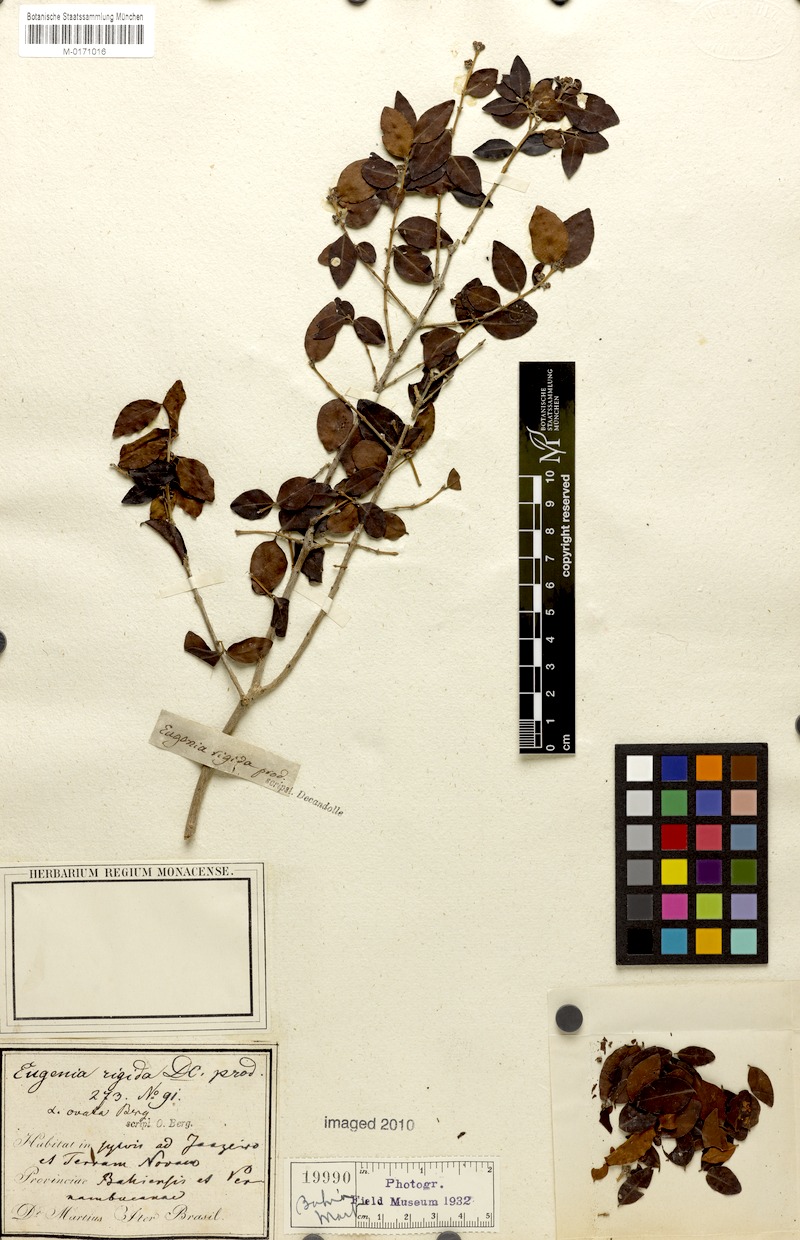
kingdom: Plantae
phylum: Tracheophyta
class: Magnoliopsida
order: Myrtales
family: Myrtaceae
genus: Eugenia
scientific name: Eugenia rigida
